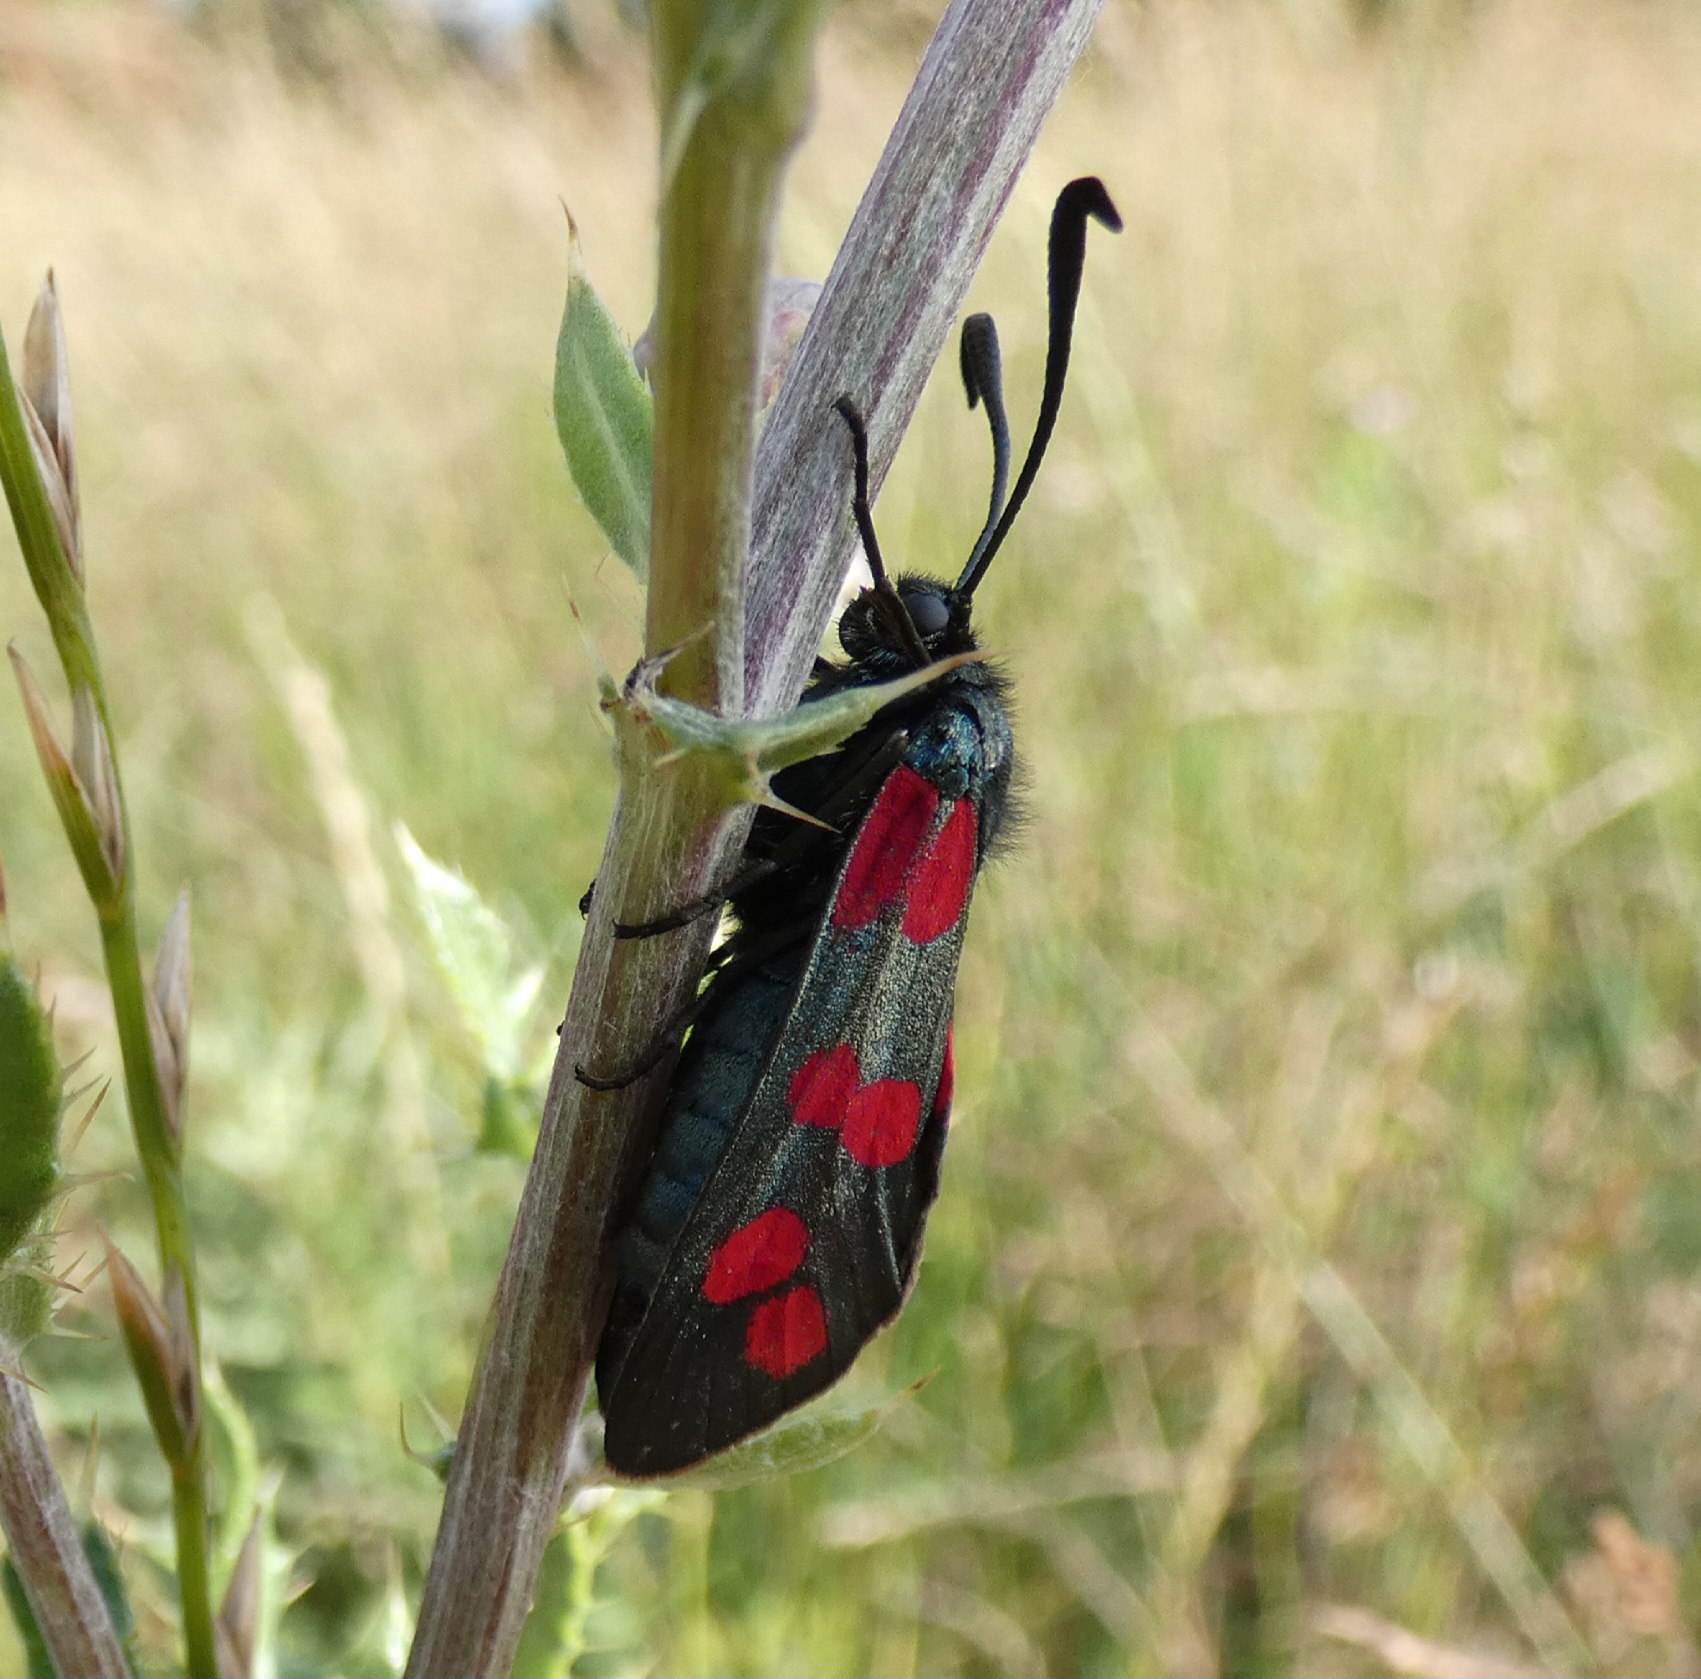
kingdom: Animalia
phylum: Arthropoda
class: Insecta
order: Lepidoptera
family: Zygaenidae
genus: Zygaena
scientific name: Zygaena filipendulae
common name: Seksplettet køllesværmer
